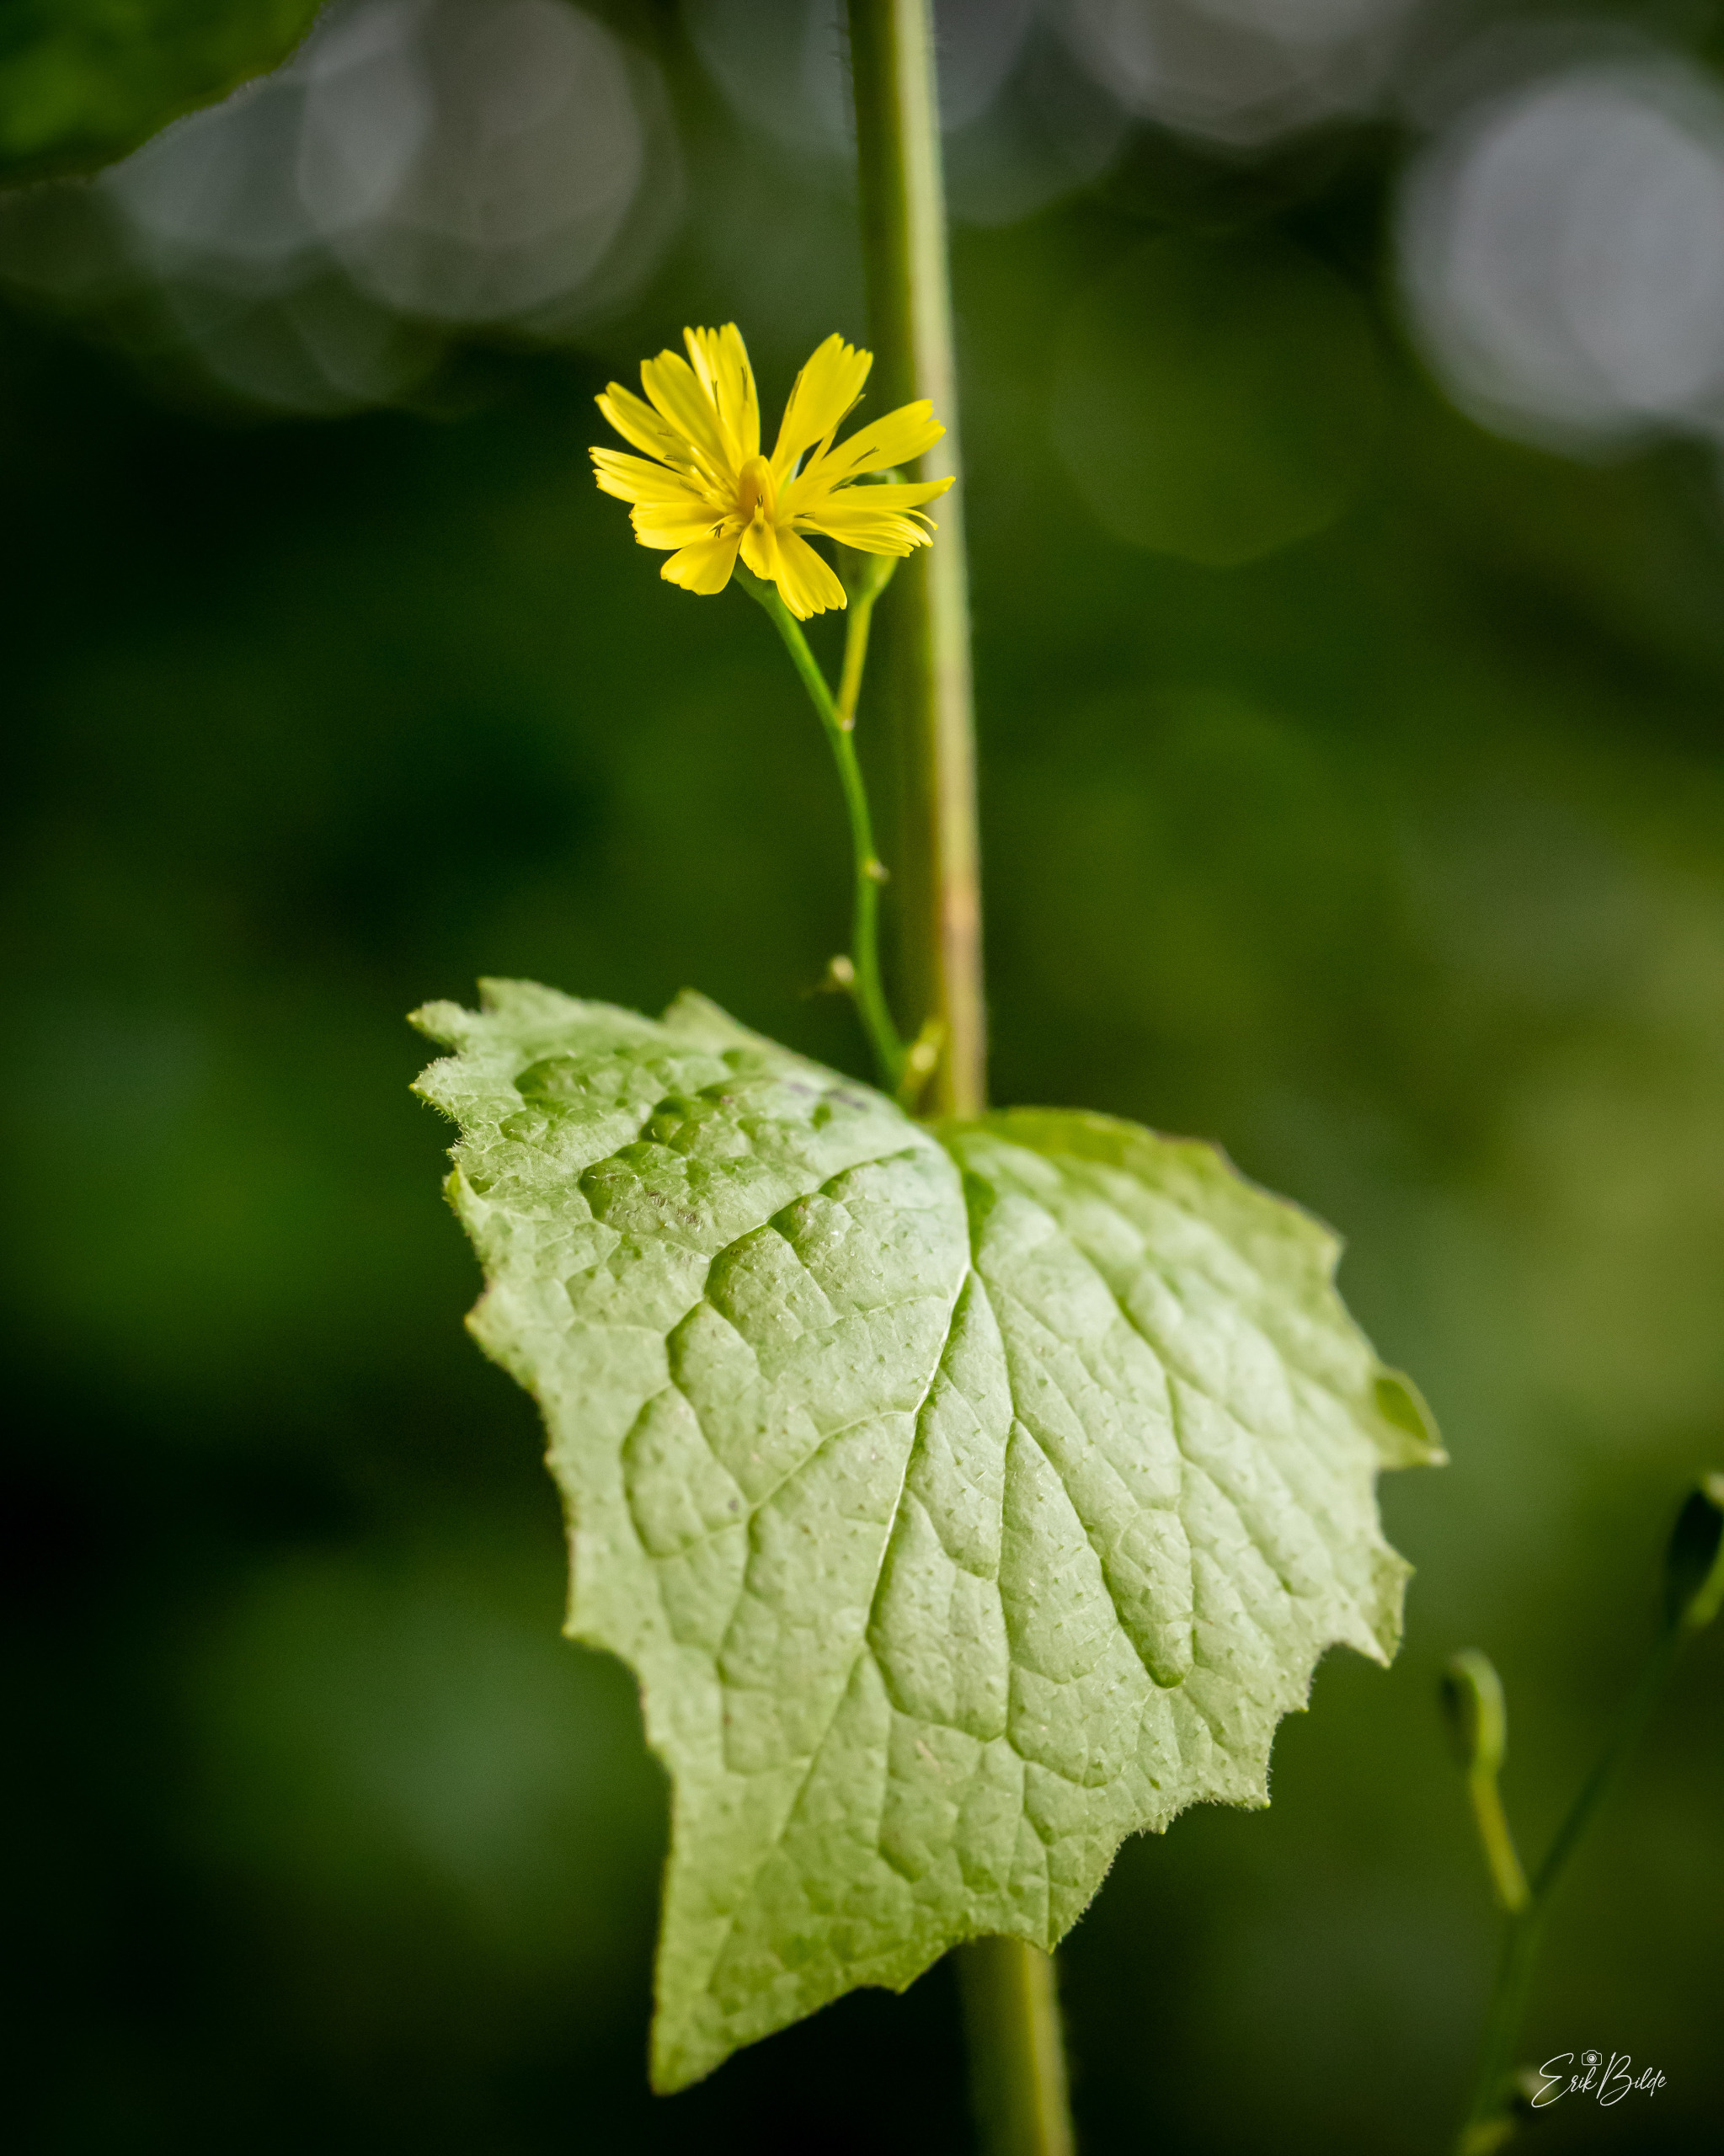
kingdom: Plantae
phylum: Tracheophyta
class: Magnoliopsida
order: Asterales
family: Asteraceae
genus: Lapsana
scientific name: Lapsana communis
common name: Haremad
